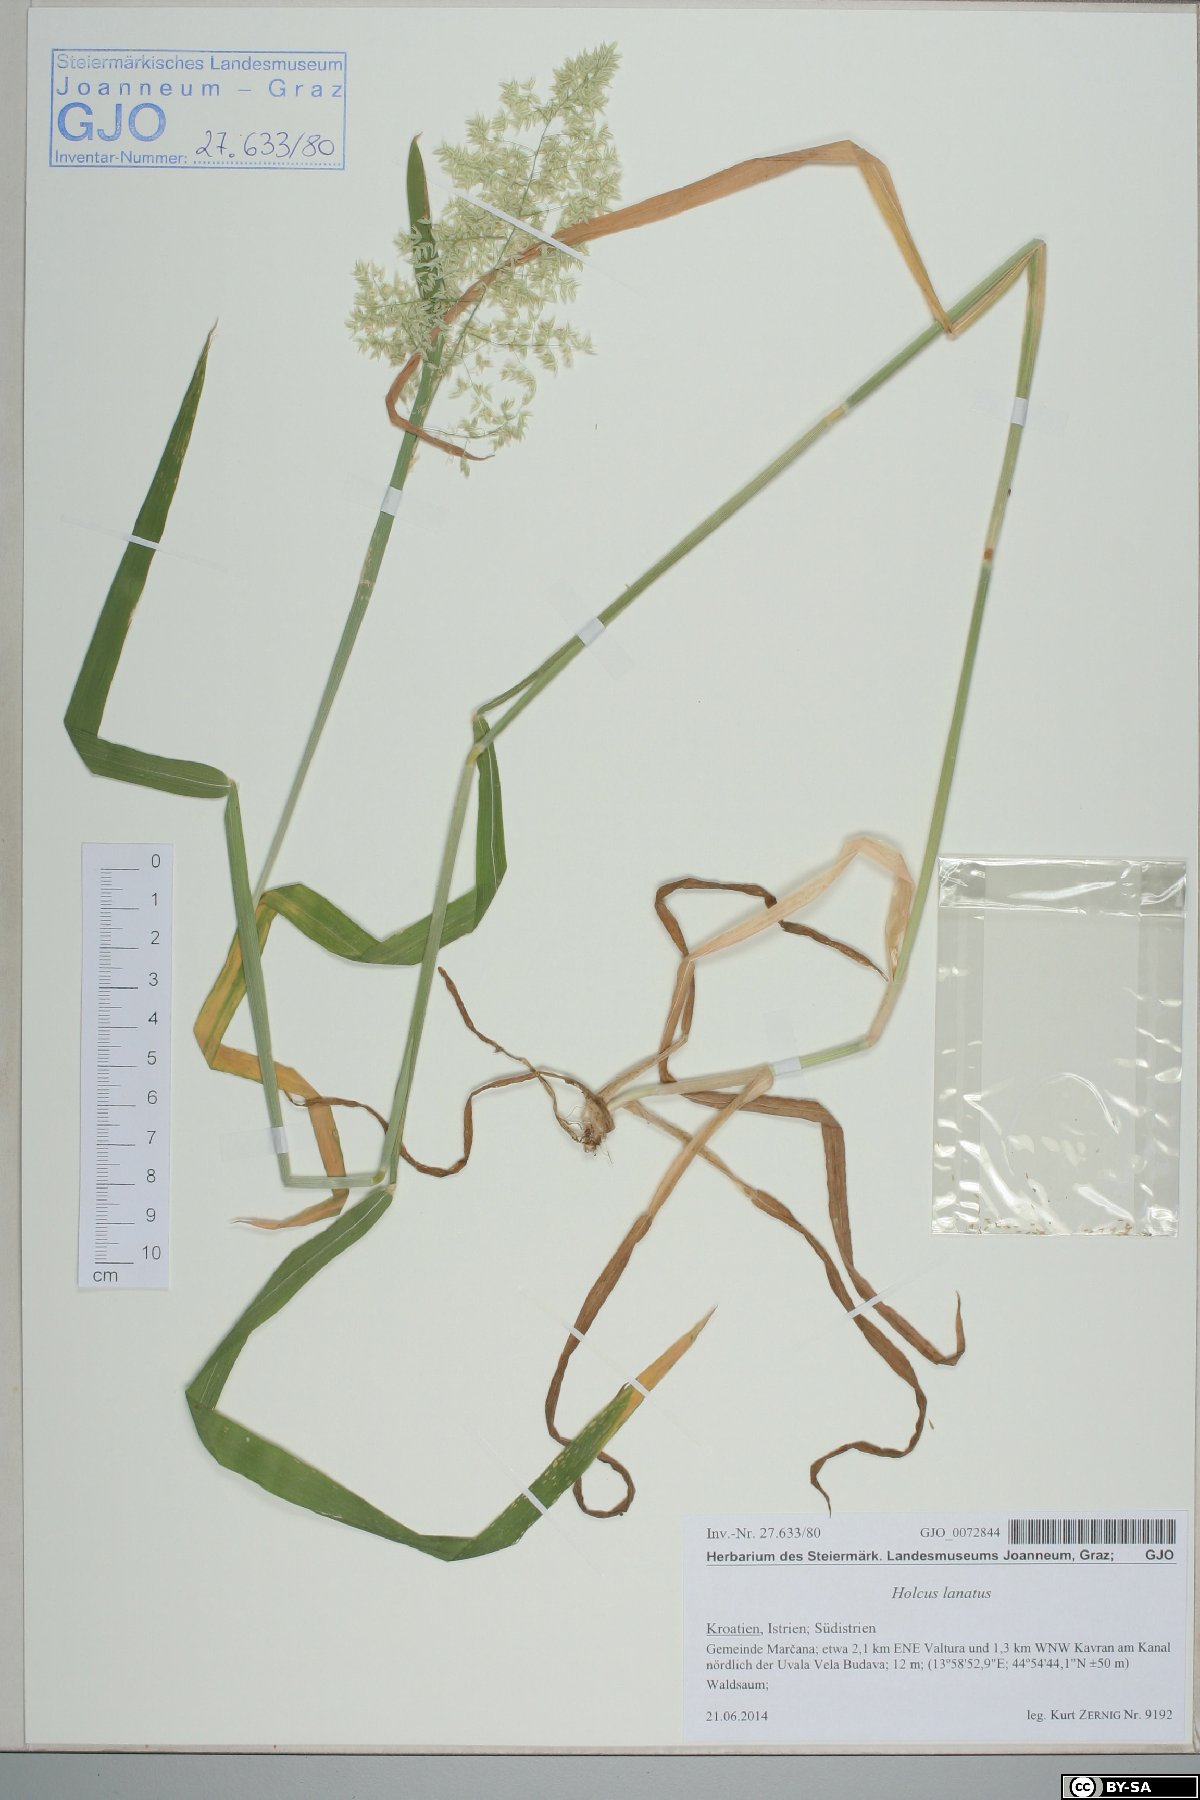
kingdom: Plantae
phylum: Tracheophyta
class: Liliopsida
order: Poales
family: Poaceae
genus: Holcus
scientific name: Holcus lanatus
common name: Yorkshire-fog
